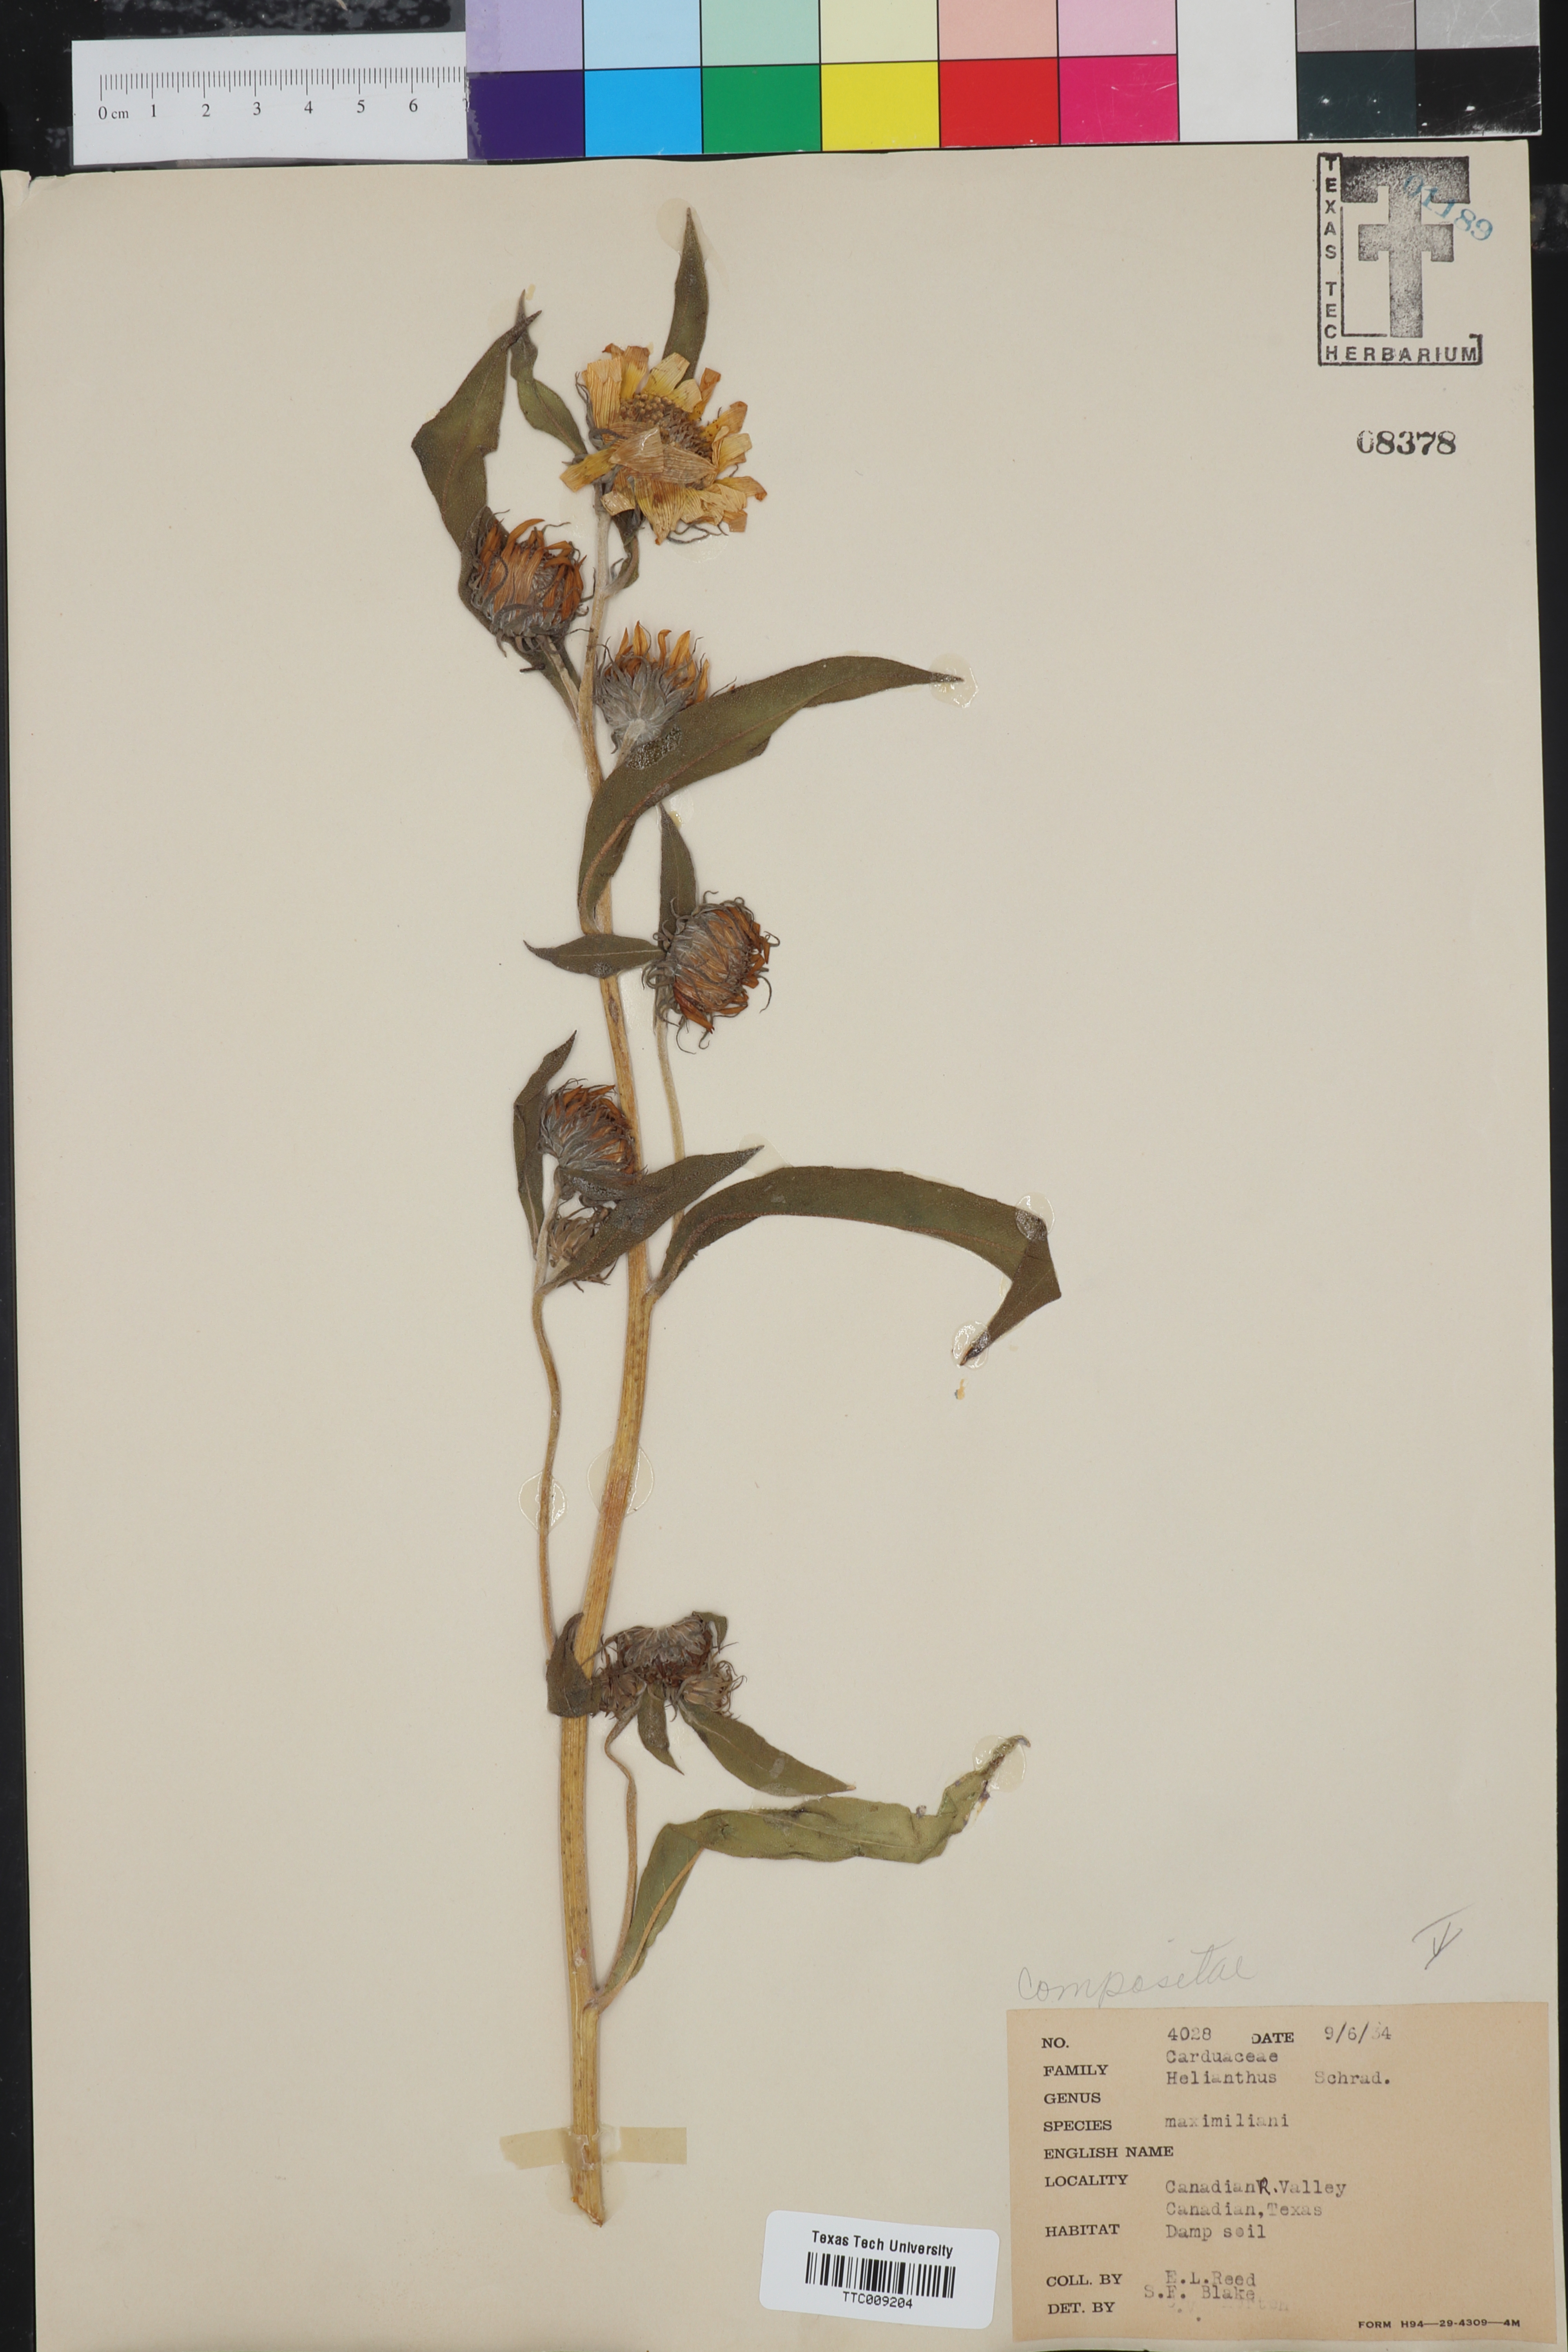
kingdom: Plantae
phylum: Tracheophyta
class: Magnoliopsida
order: Asterales
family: Asteraceae
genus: Helianthus
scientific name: Helianthus maximiliani
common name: Maximilian's sunflower
